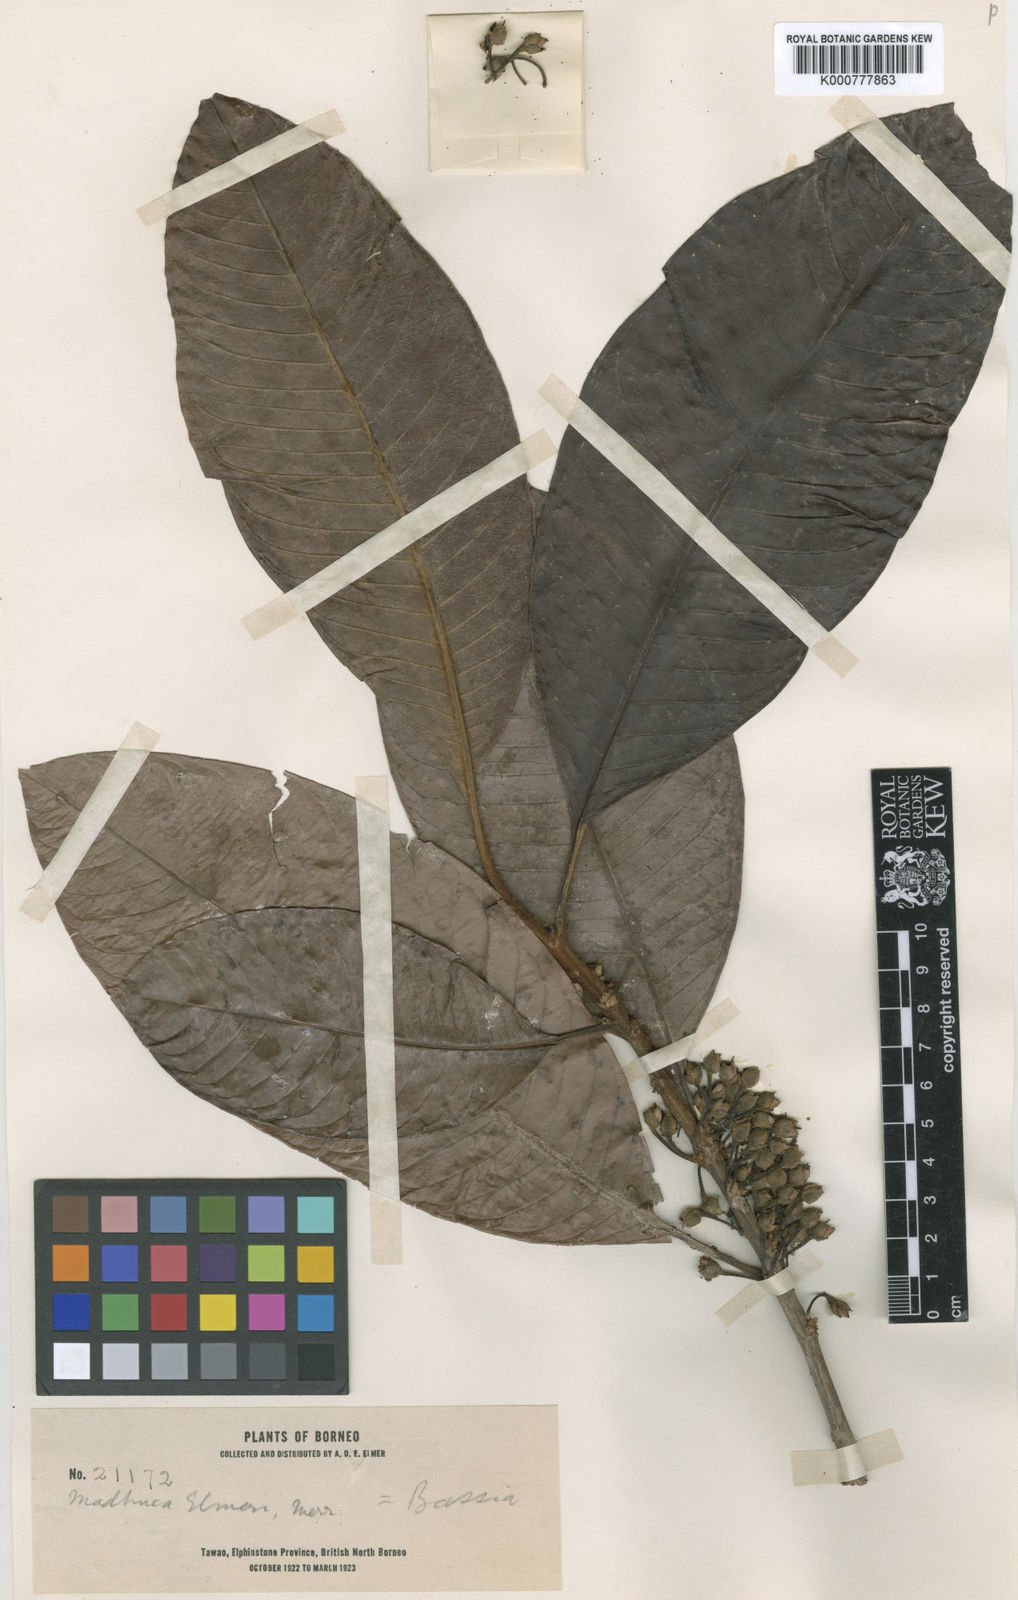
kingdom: Plantae
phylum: Tracheophyta
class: Magnoliopsida
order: Ericales
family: Sapotaceae
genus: Madhuca
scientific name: Madhuca elmeri
